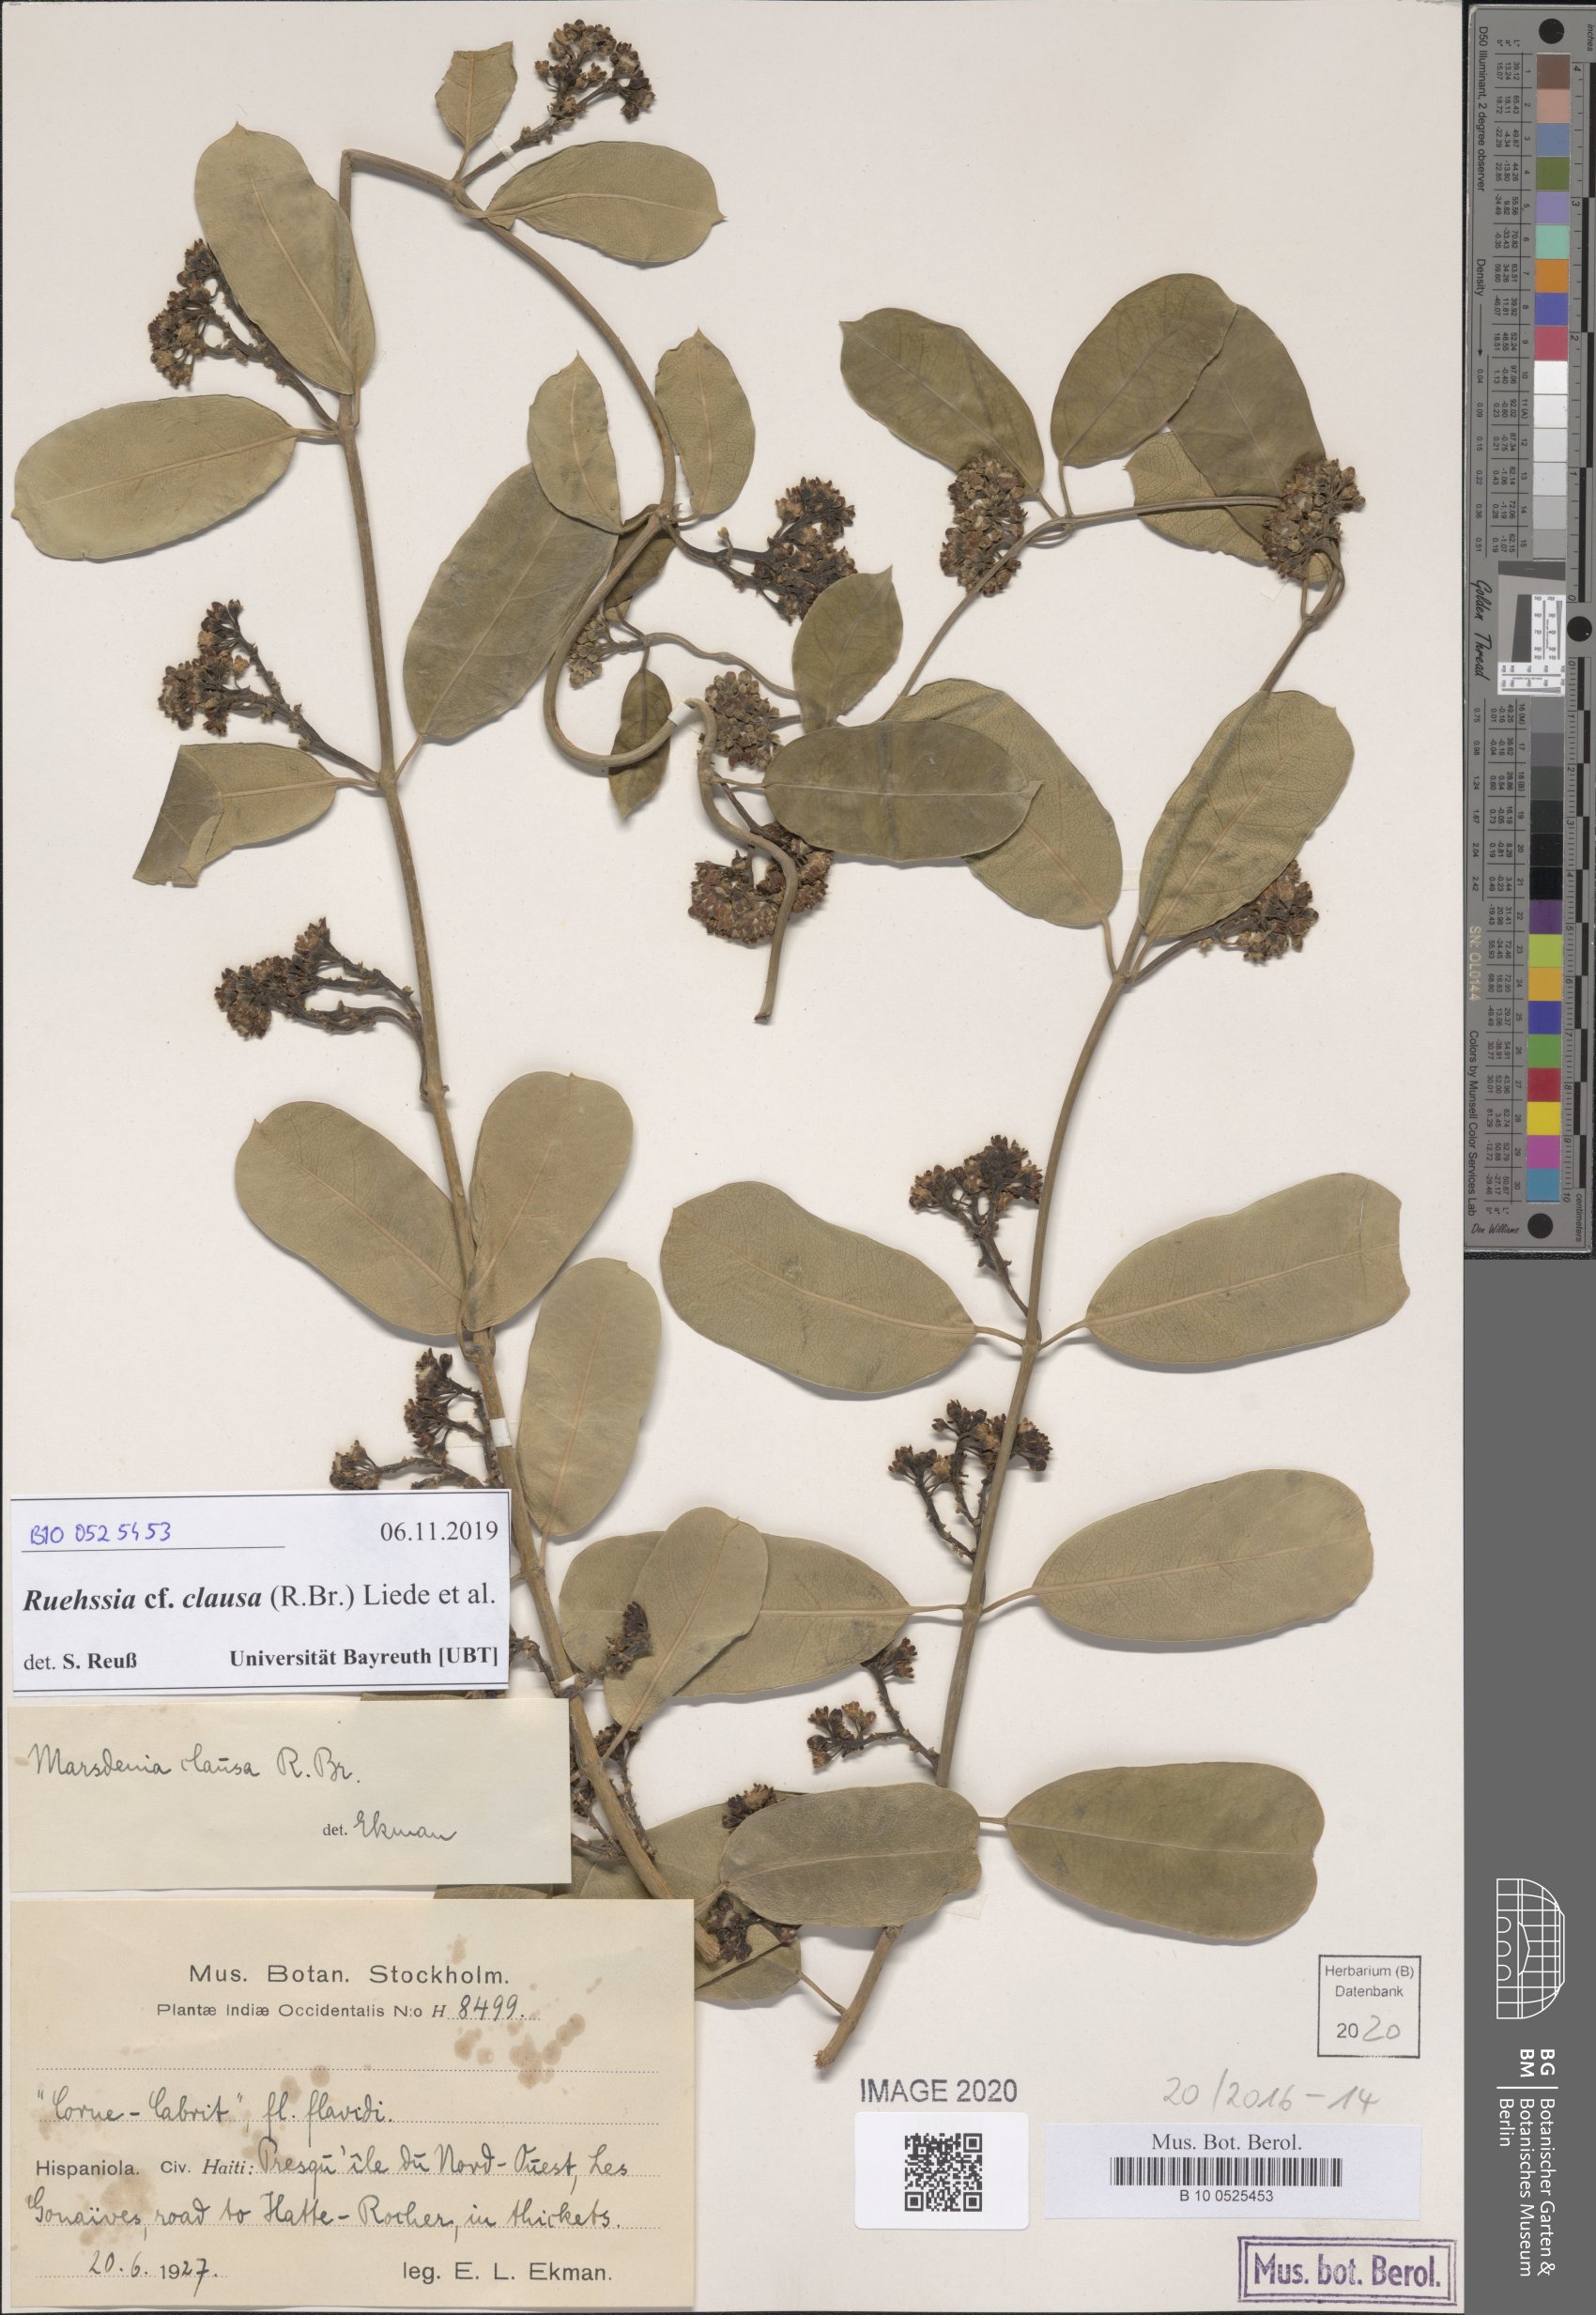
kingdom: Plantae
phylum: Tracheophyta
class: Magnoliopsida
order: Gentianales
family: Apocynaceae
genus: Ruehssia
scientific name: Ruehssia clausa
